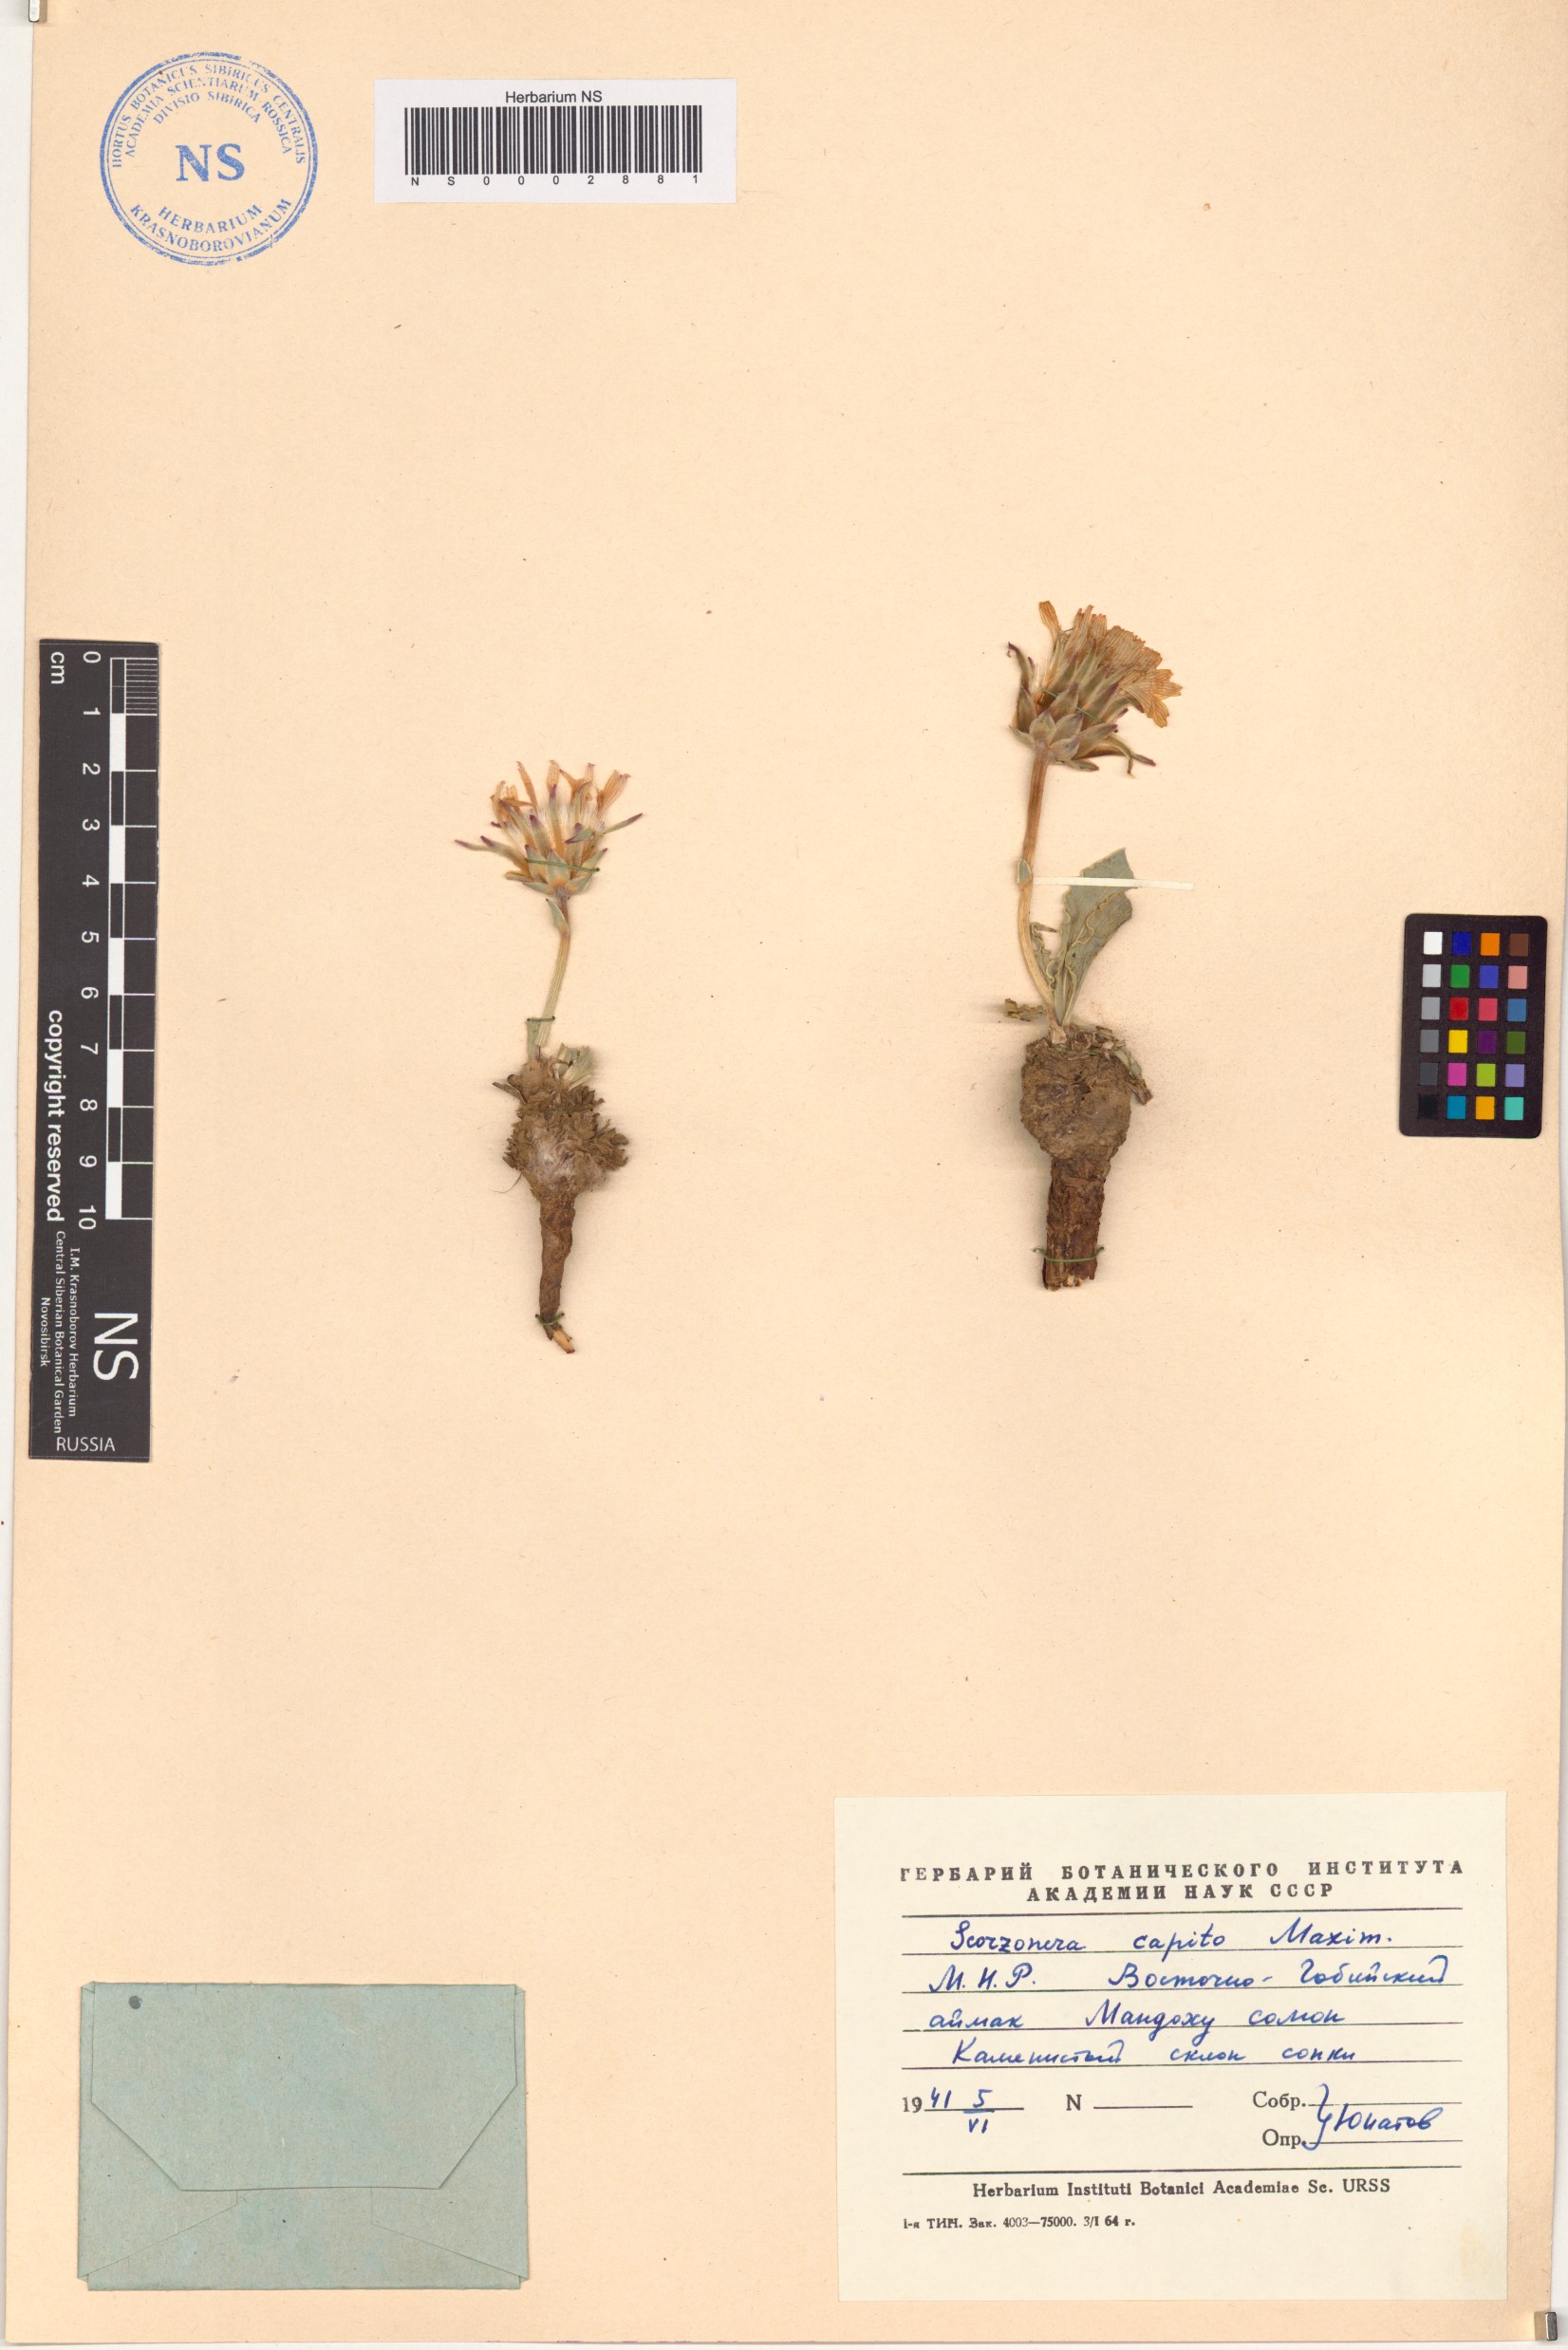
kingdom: Plantae
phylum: Tracheophyta
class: Magnoliopsida
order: Asterales
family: Asteraceae
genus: Takhtajaniantha
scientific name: Takhtajaniantha capito
